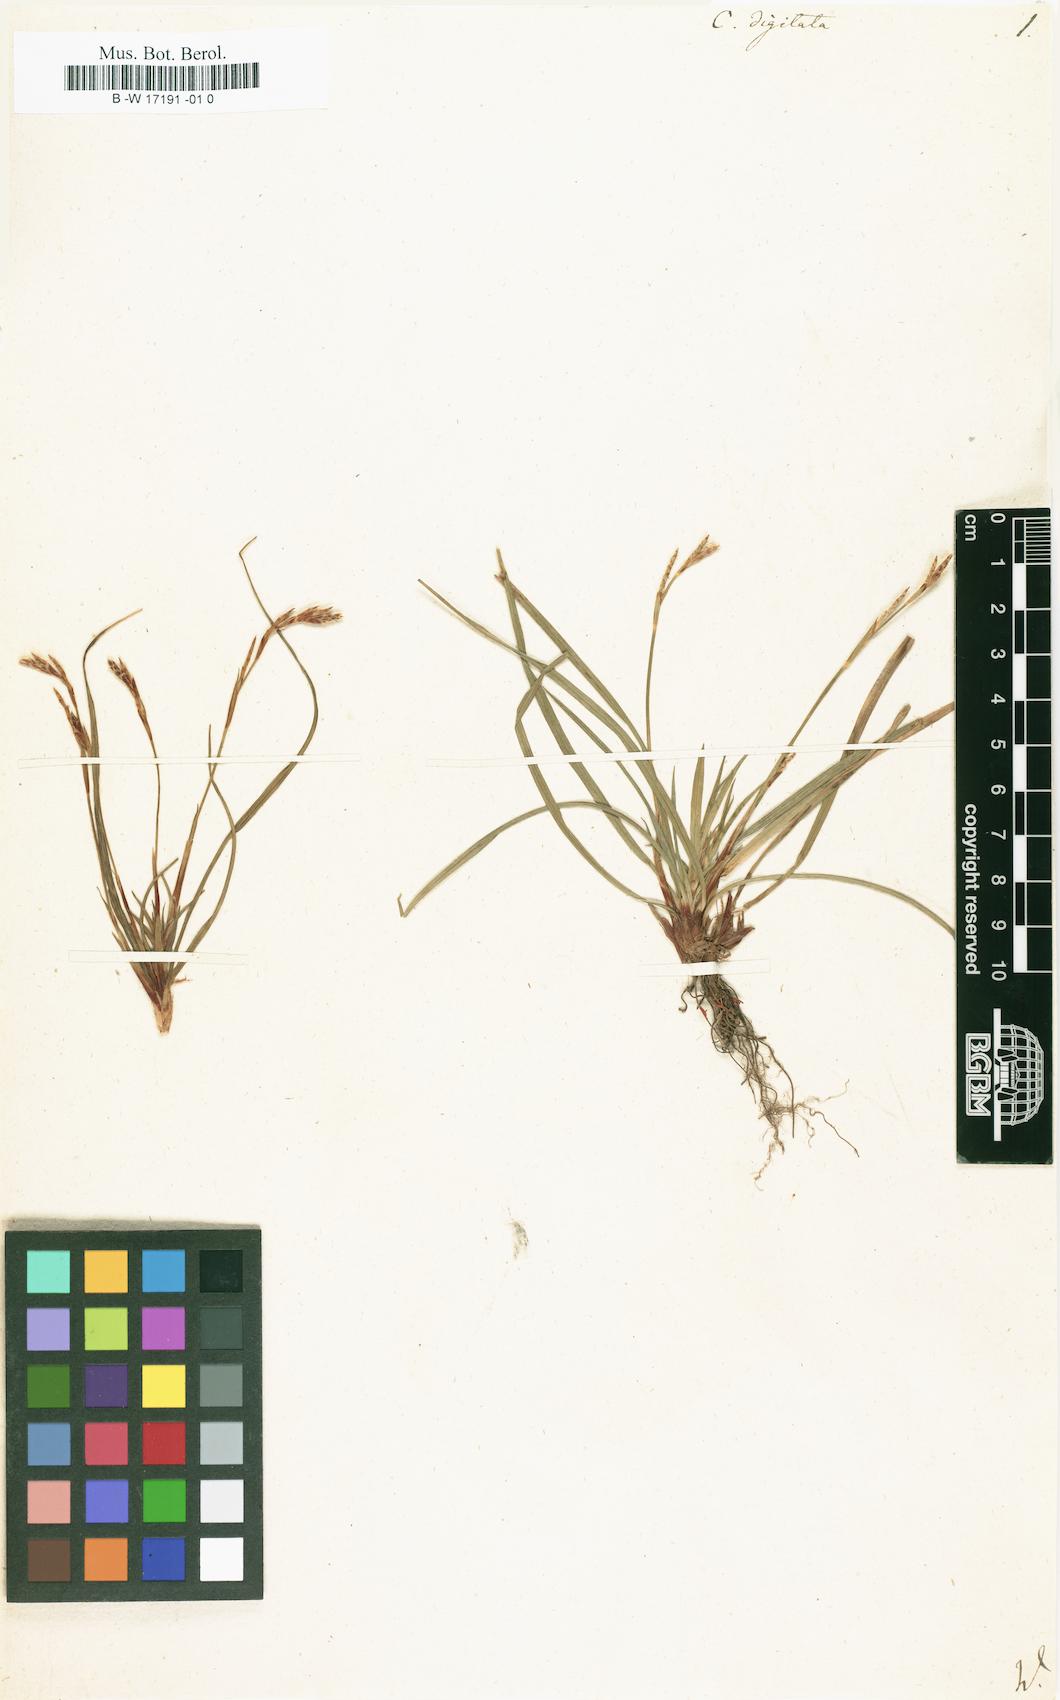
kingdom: Plantae
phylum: Tracheophyta
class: Liliopsida
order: Poales
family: Cyperaceae
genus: Carex
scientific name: Carex digitata
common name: Fingered sedge
